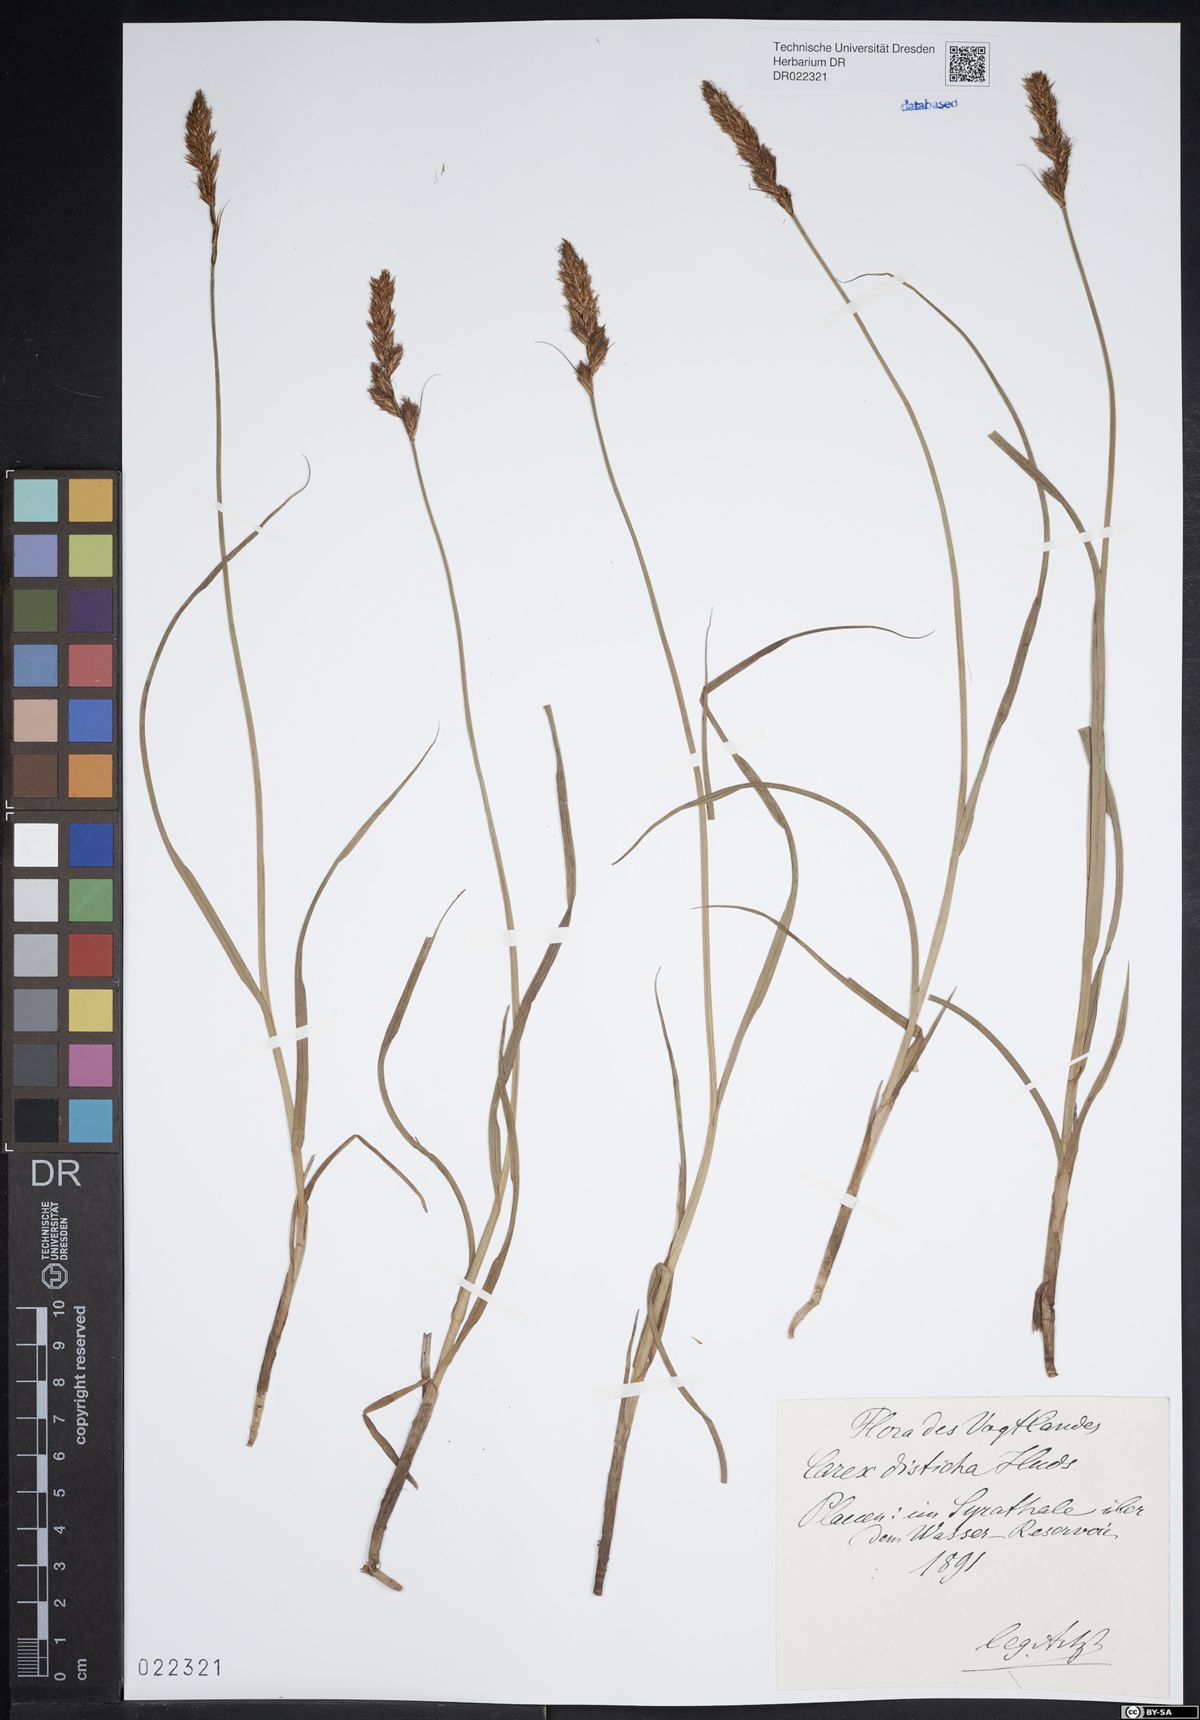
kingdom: Plantae
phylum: Tracheophyta
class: Liliopsida
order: Poales
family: Cyperaceae
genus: Carex
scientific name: Carex disticha
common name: Brown sedge
